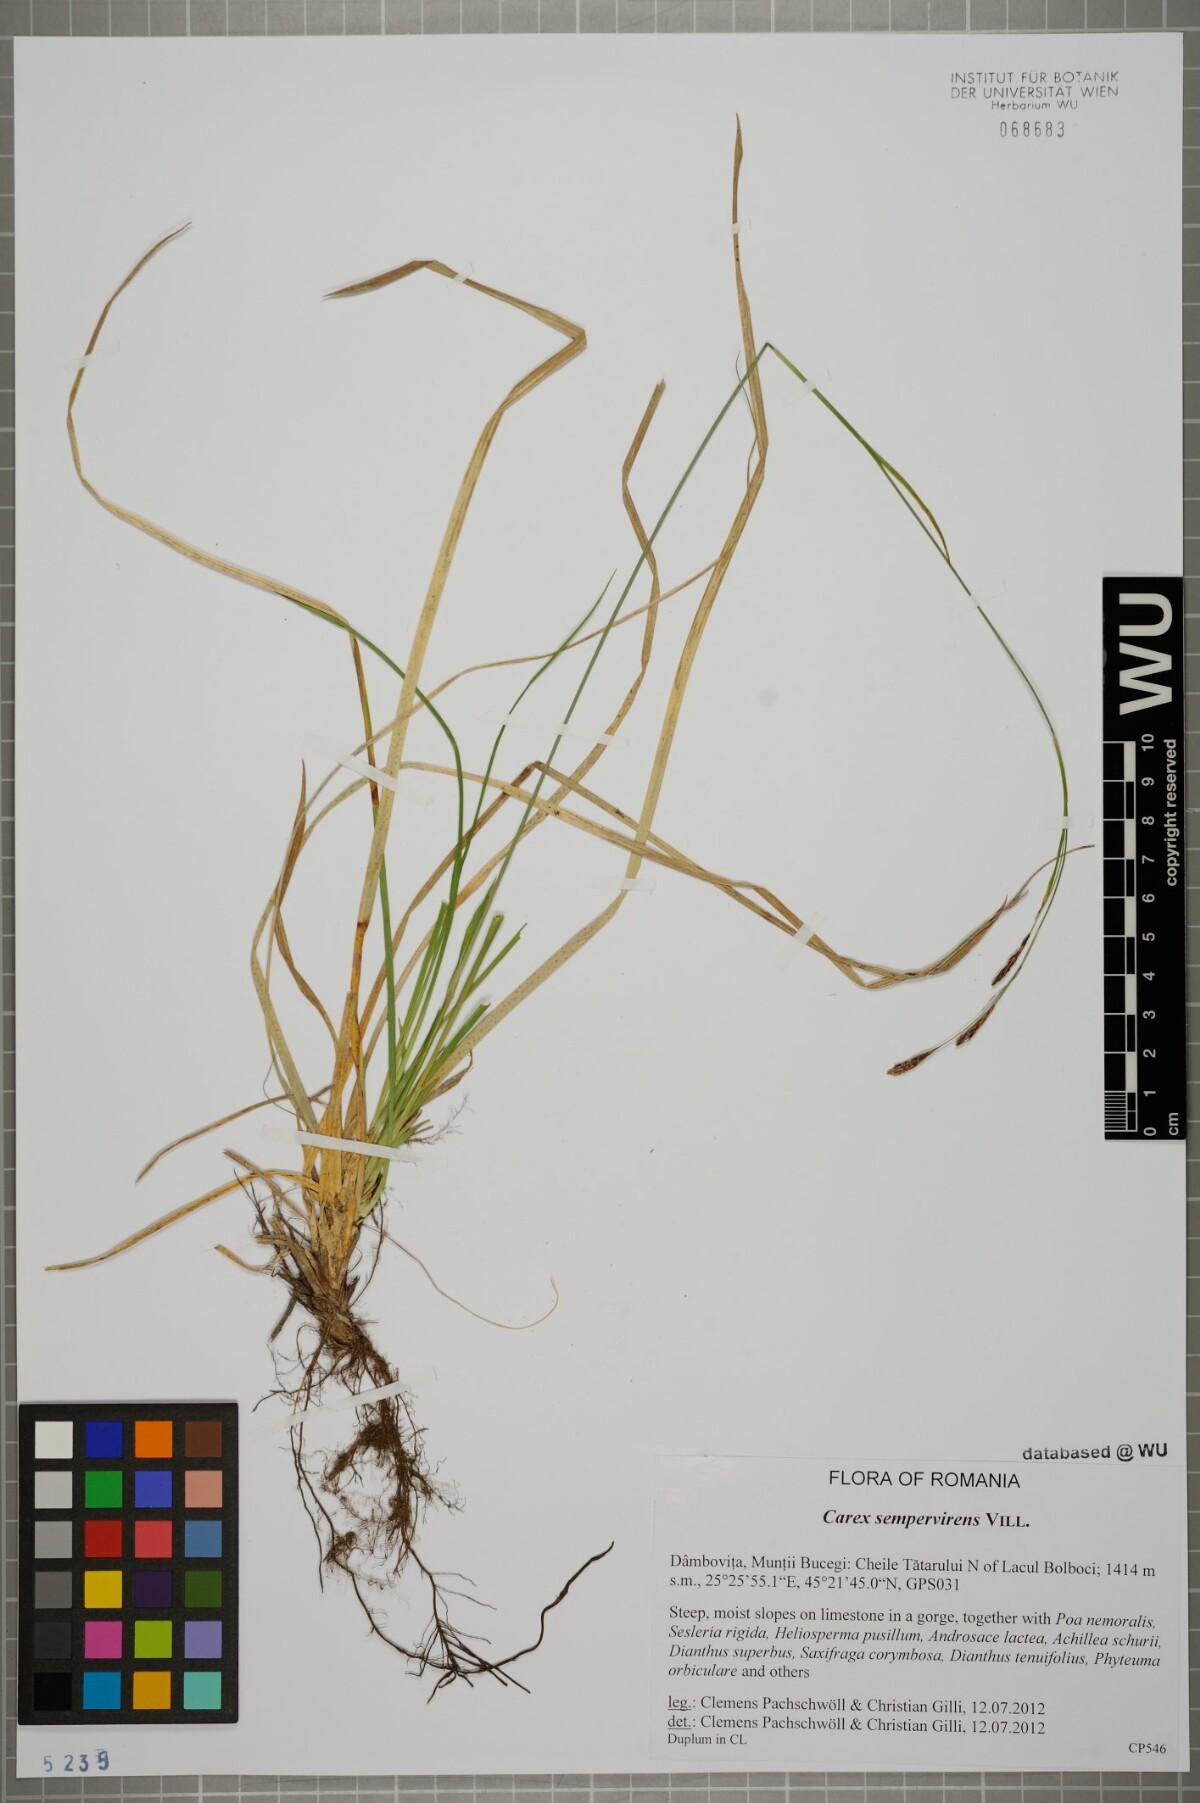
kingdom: Plantae
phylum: Tracheophyta
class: Liliopsida
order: Poales
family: Cyperaceae
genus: Carex
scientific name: Carex sempervirens
